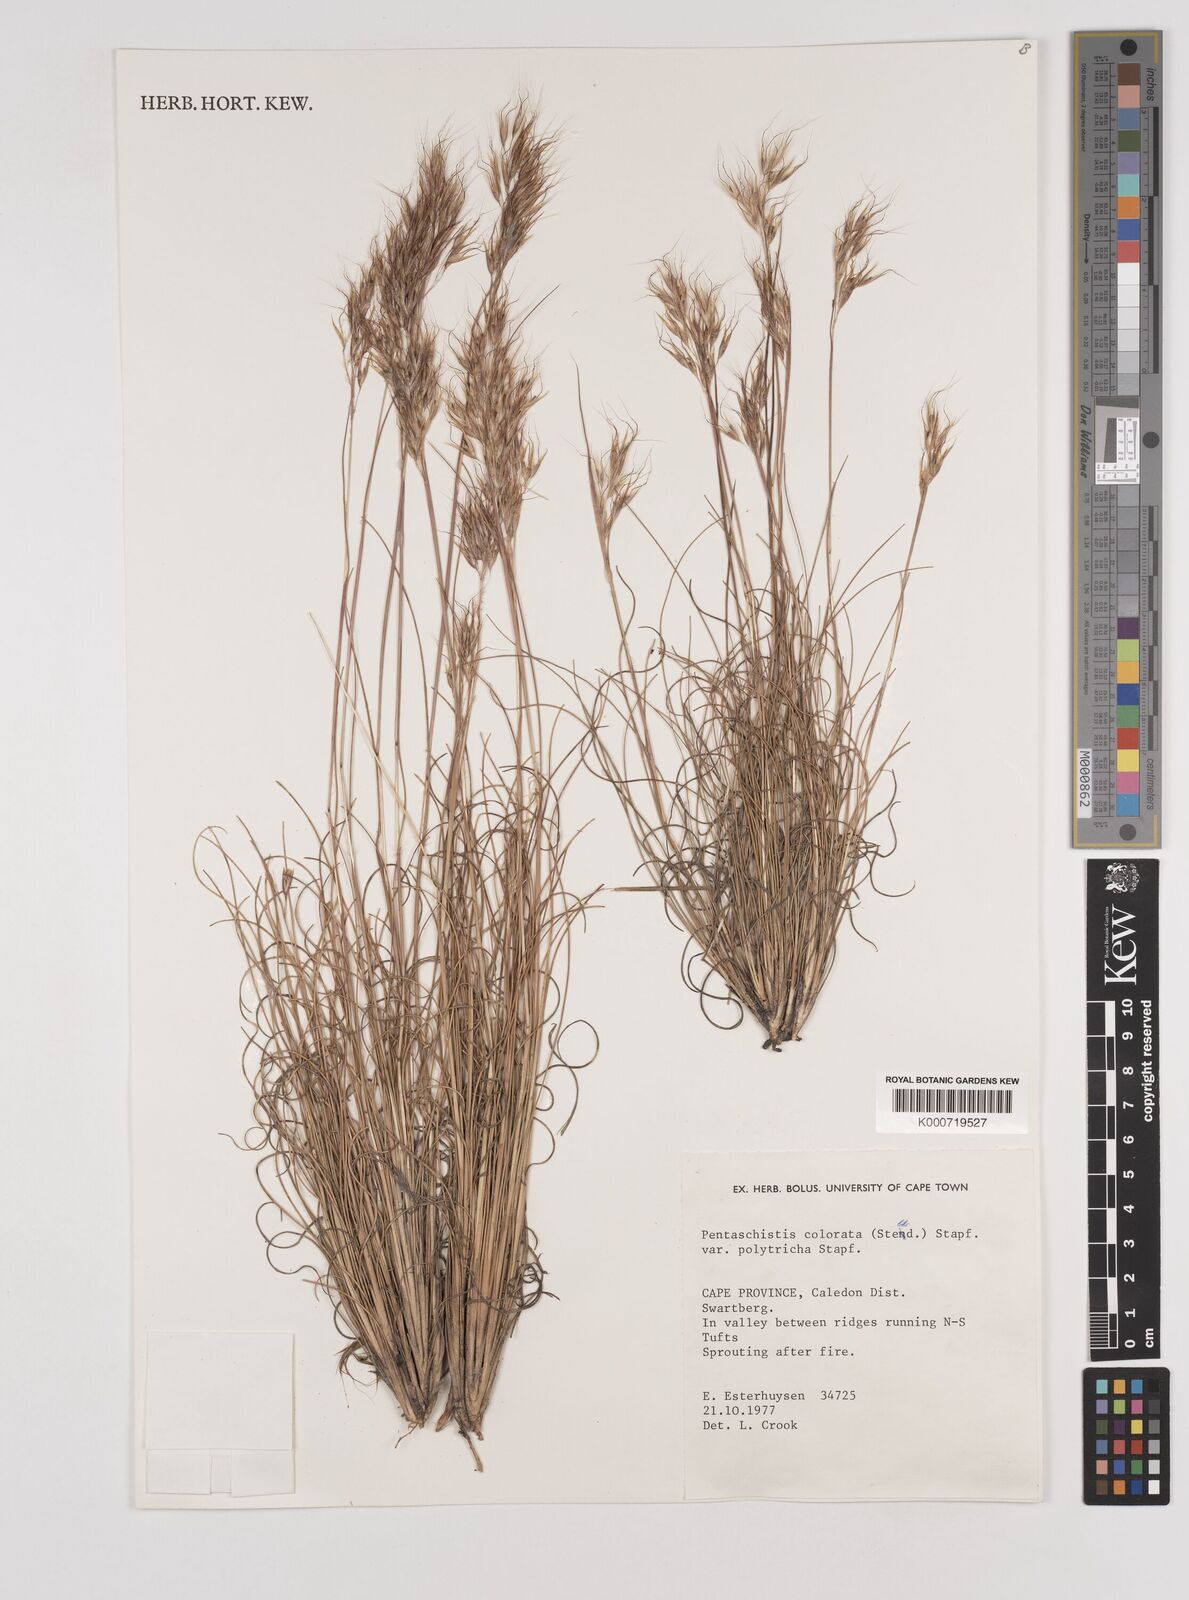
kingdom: Plantae
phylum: Tracheophyta
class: Liliopsida
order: Poales
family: Poaceae
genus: Pentameris
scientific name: Pentameris colorata
